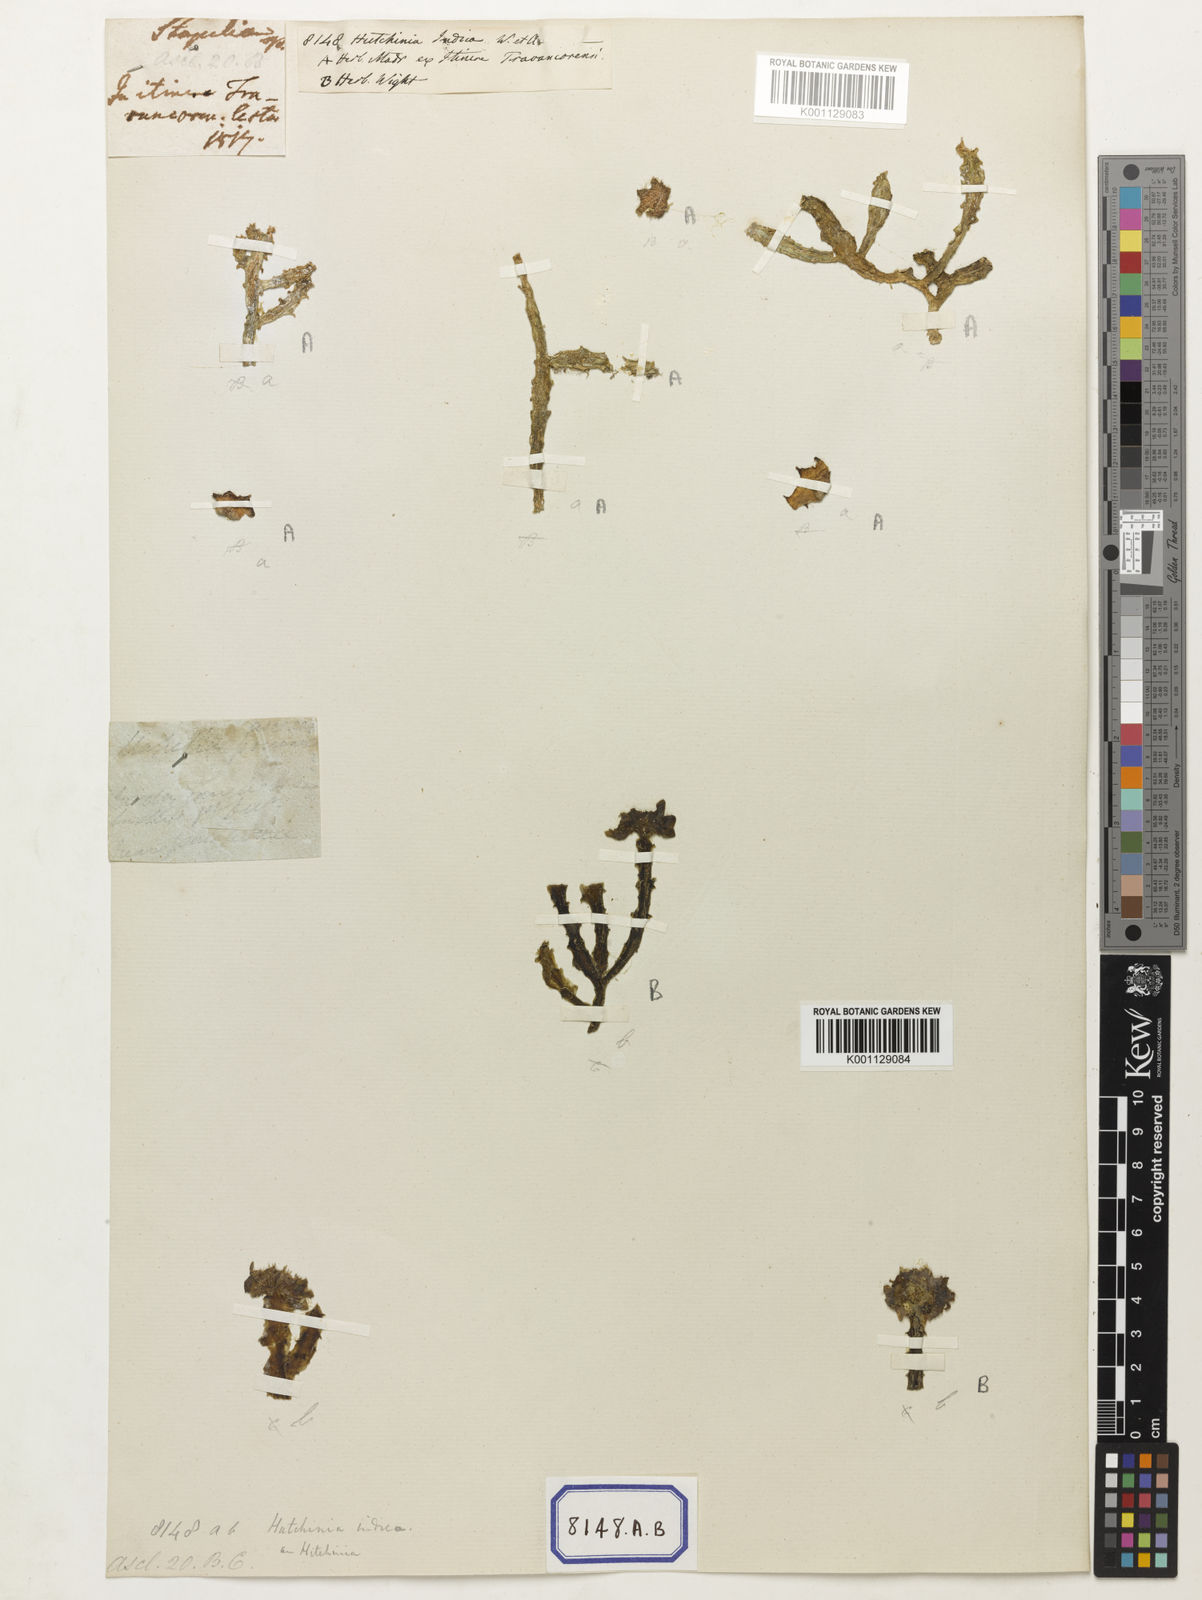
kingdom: Plantae
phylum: Tracheophyta
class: Magnoliopsida
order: Gentianales
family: Apocynaceae
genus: Ceropegia
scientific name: Ceropegia indica
